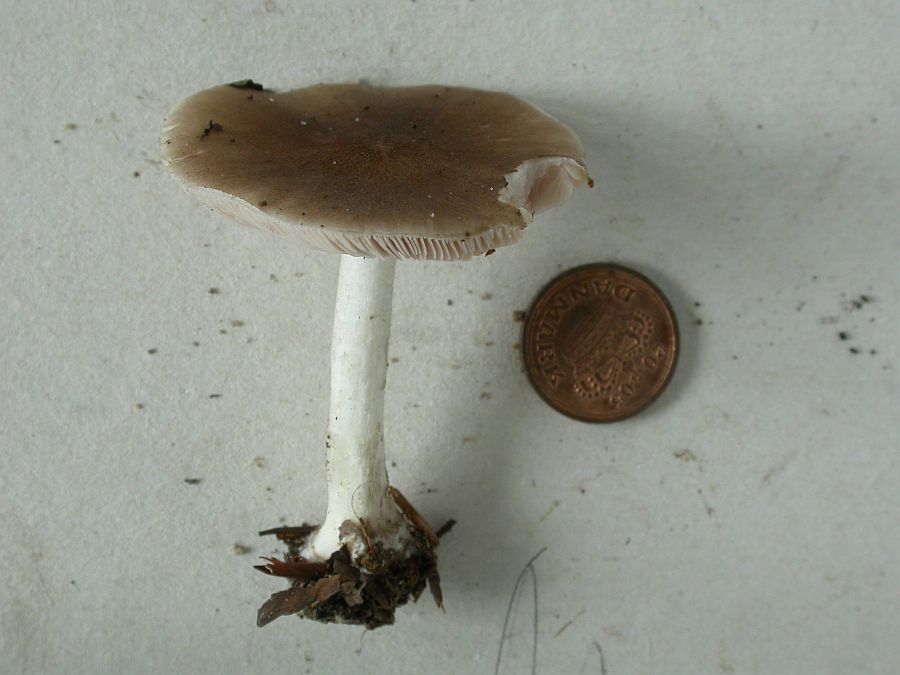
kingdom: Fungi
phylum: Basidiomycota
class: Agaricomycetes
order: Agaricales
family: Pluteaceae
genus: Pluteus
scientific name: Pluteus cervinus
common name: sodfarvet skærmhat
